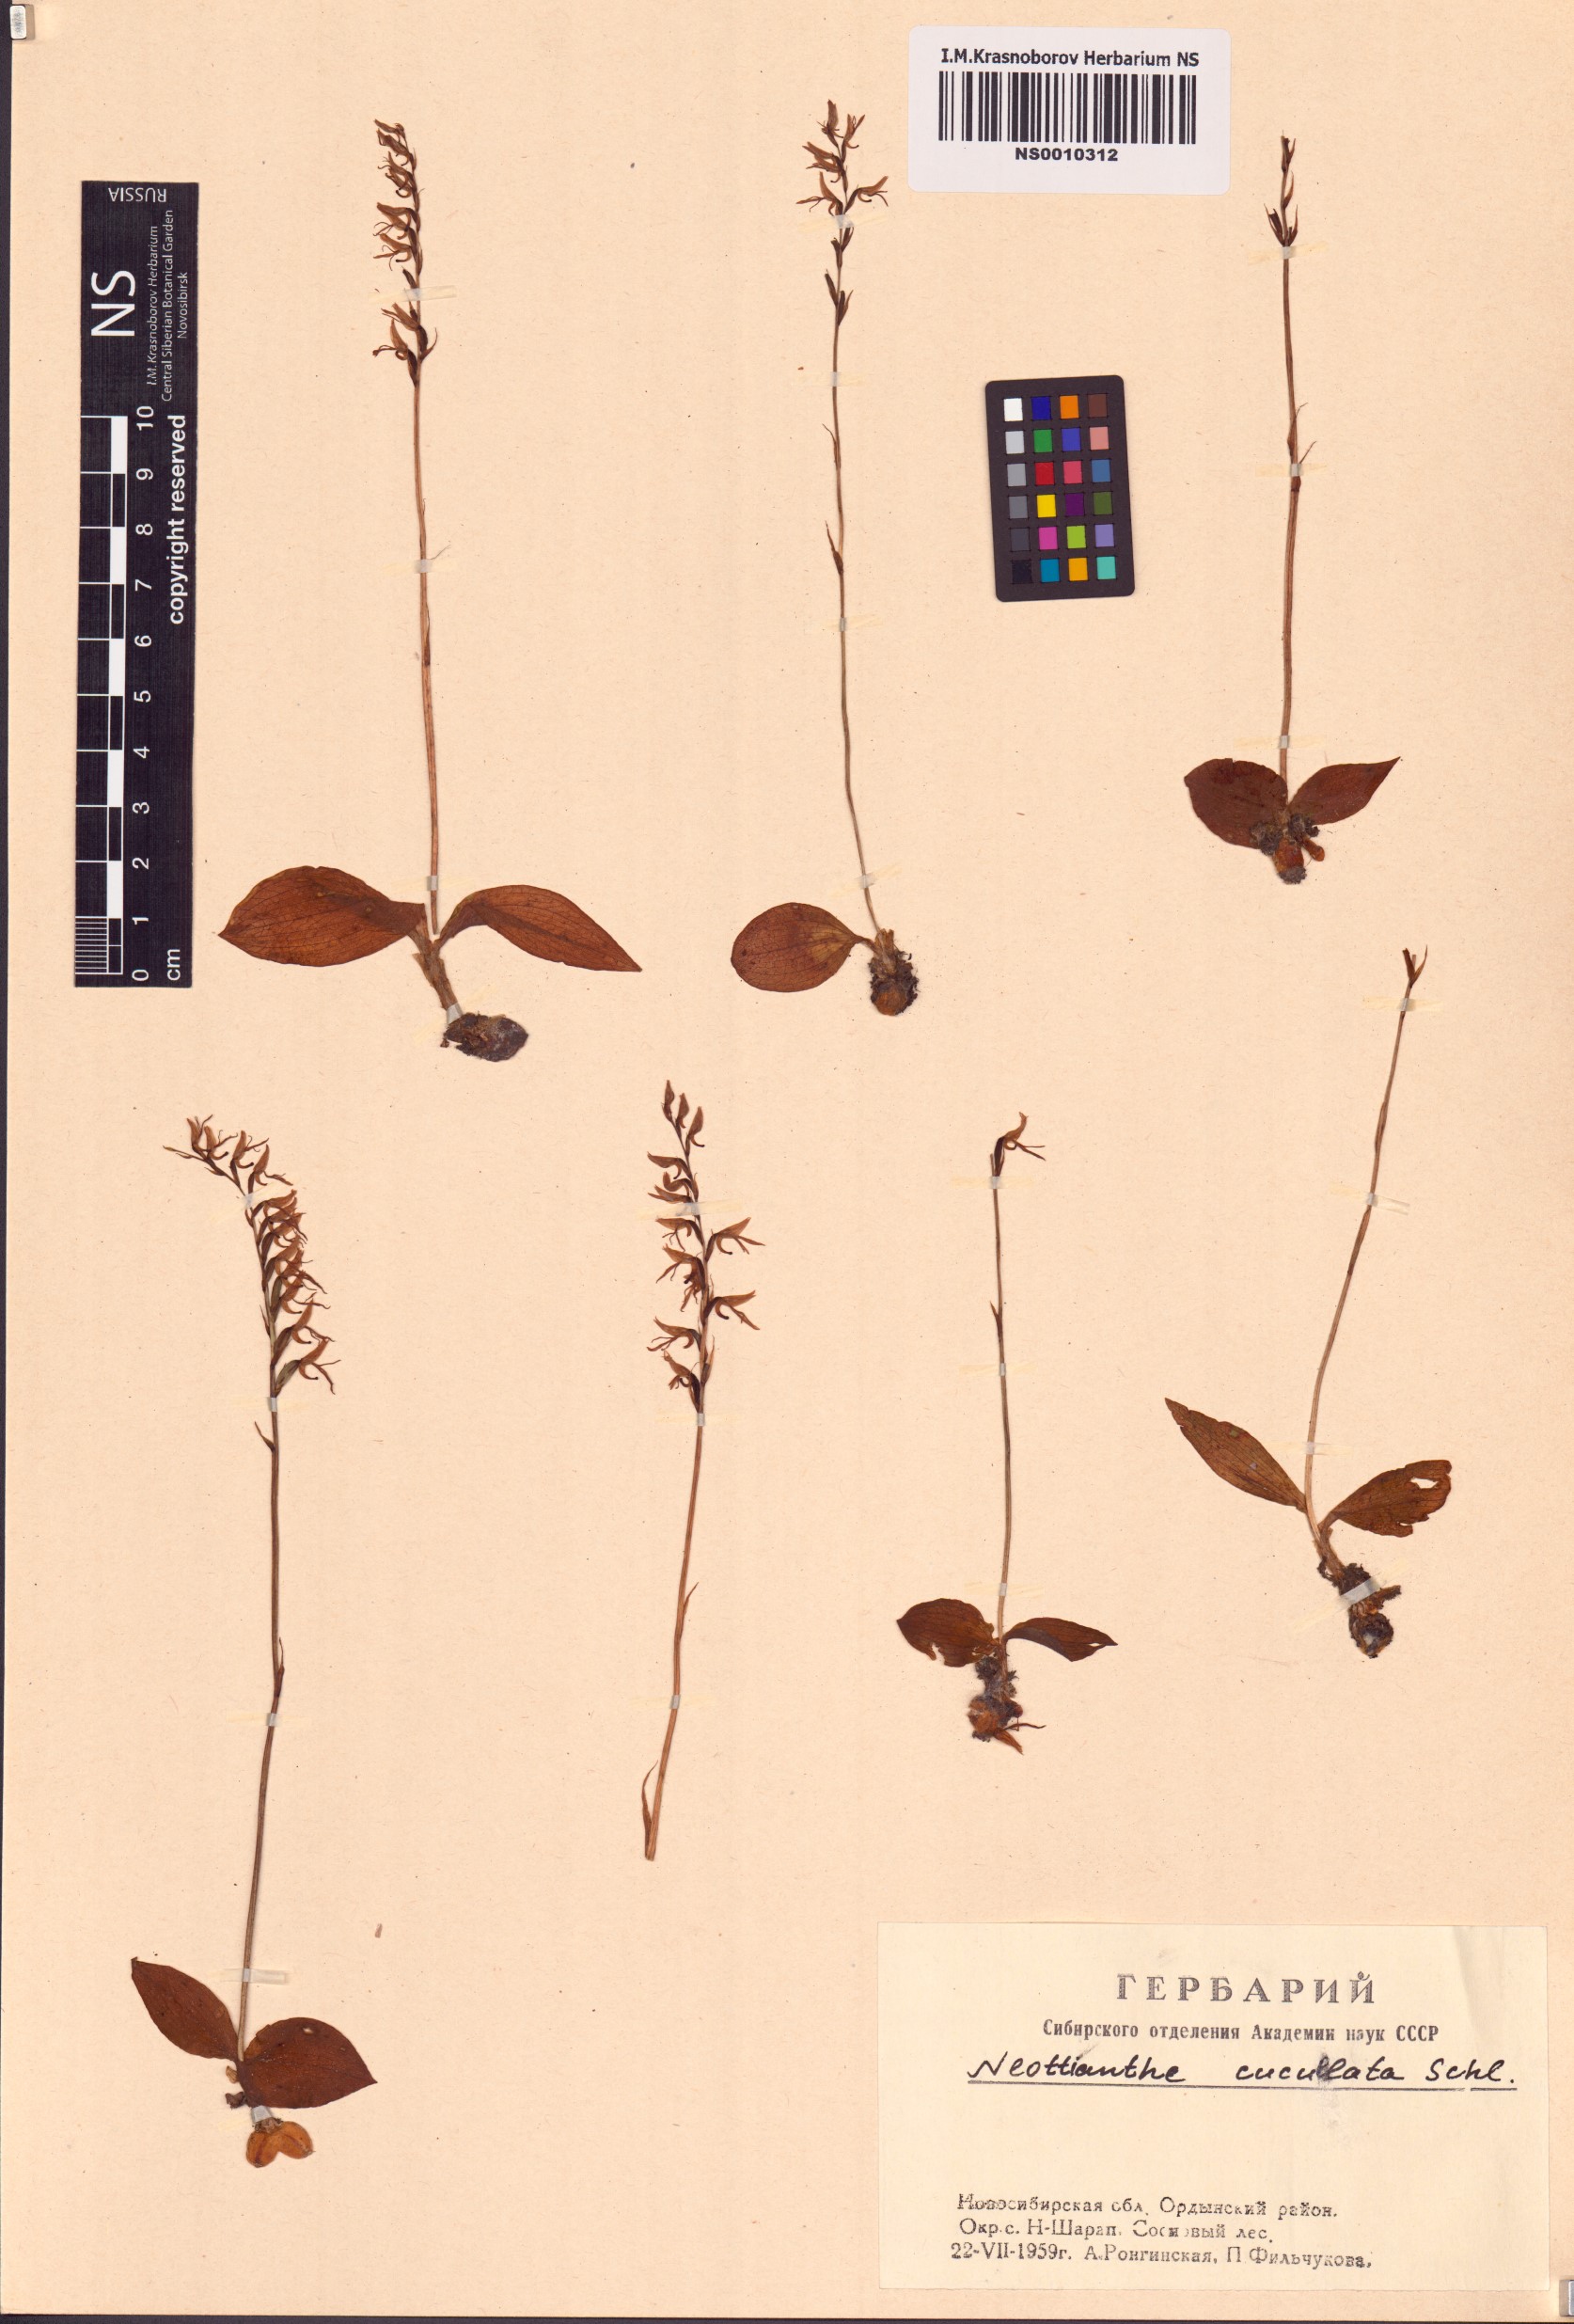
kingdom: Plantae
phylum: Tracheophyta
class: Liliopsida
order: Asparagales
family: Orchidaceae
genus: Hemipilia
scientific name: Hemipilia cucullata
